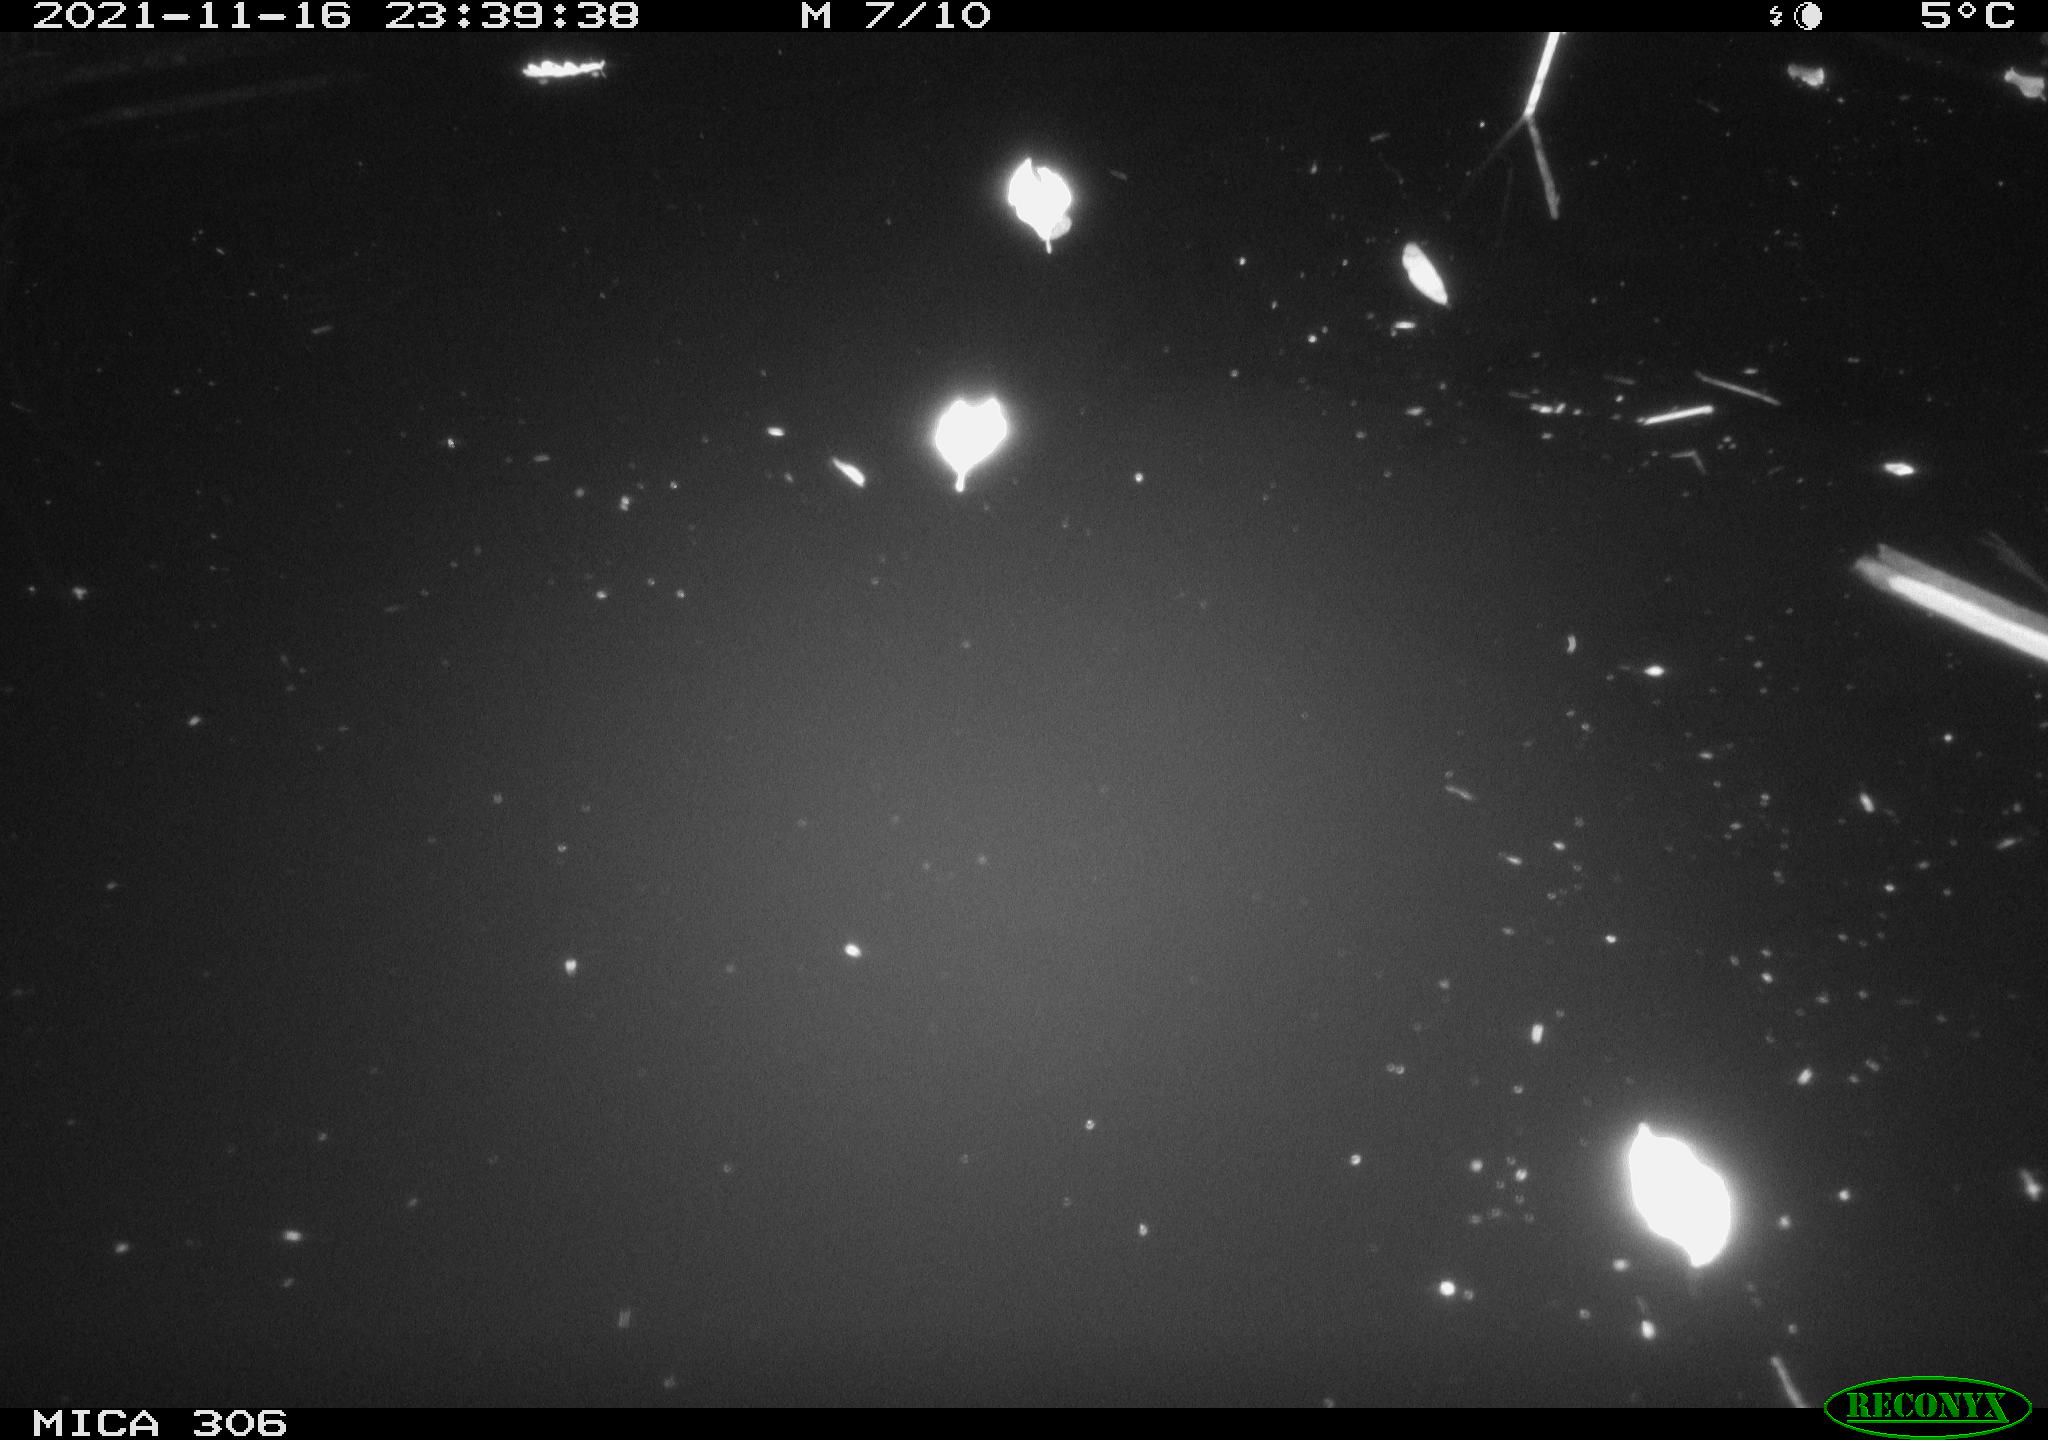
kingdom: Animalia
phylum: Chordata
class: Mammalia
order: Rodentia
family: Muridae
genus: Rattus
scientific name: Rattus norvegicus
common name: Brown rat
